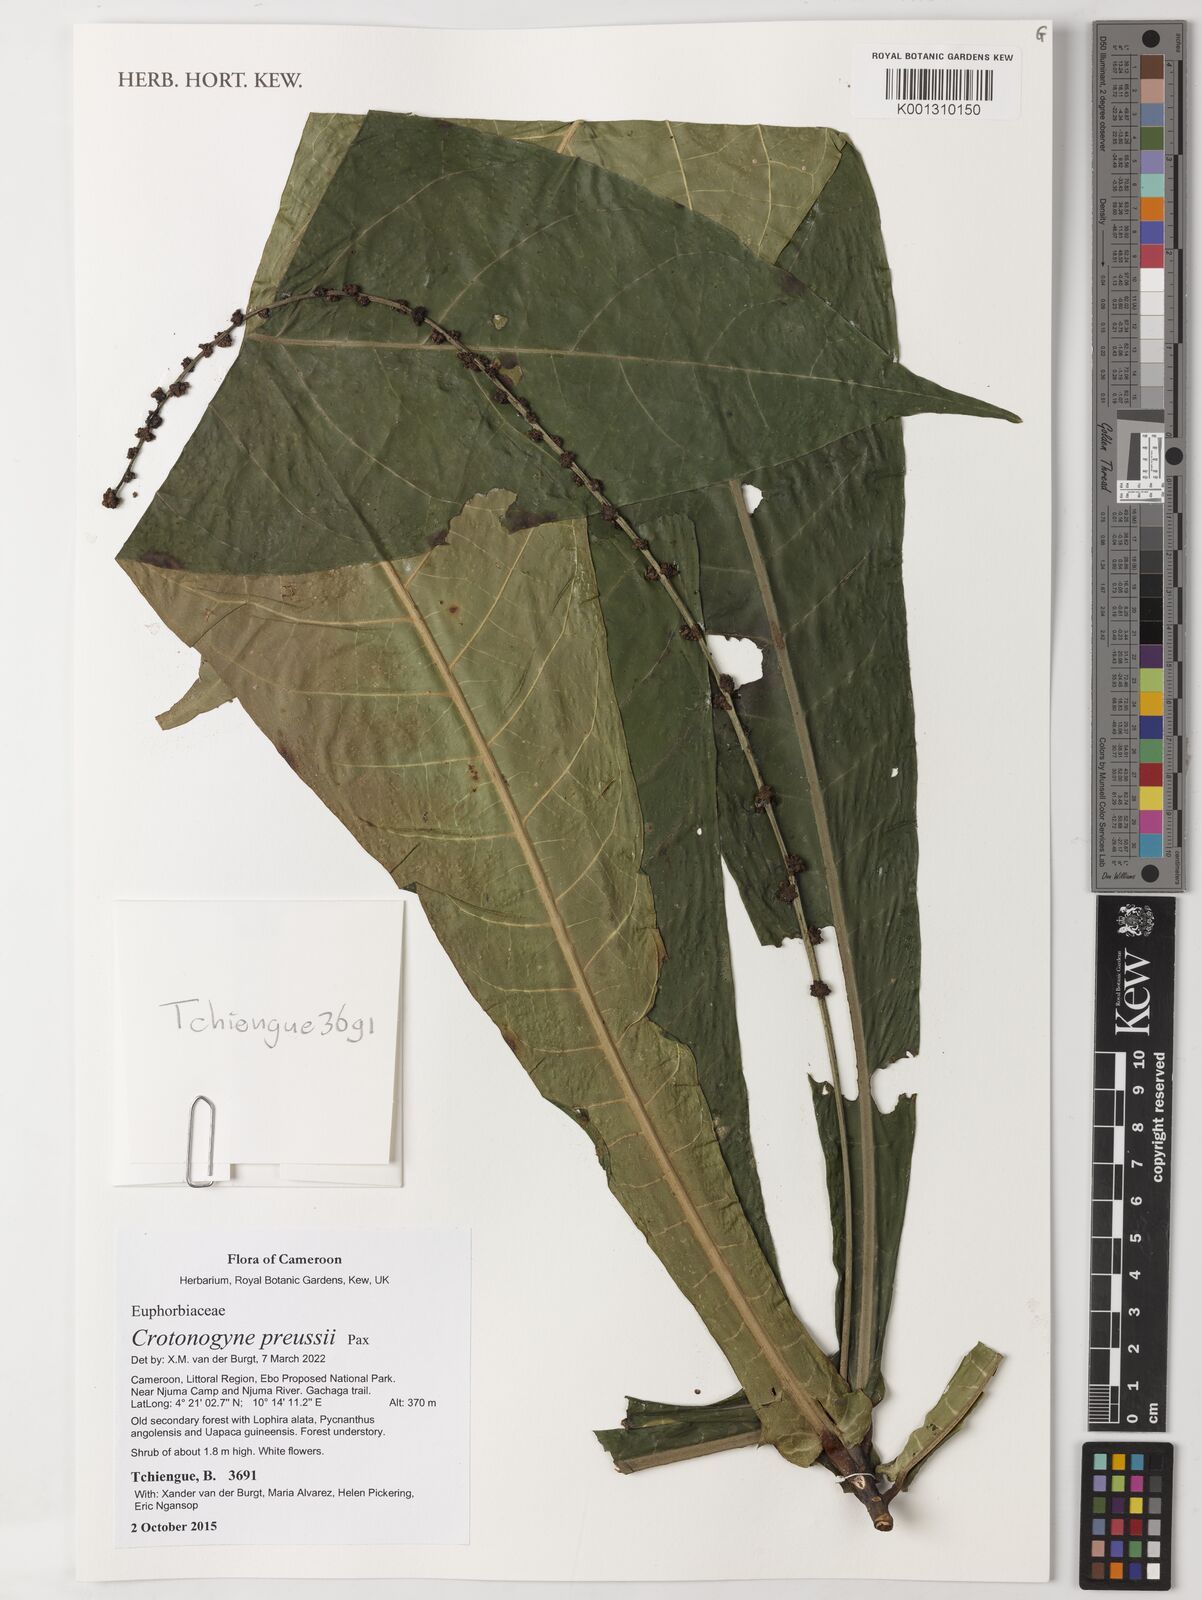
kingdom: Plantae
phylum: Tracheophyta
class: Magnoliopsida
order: Malpighiales
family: Euphorbiaceae
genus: Crotonogyne
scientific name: Crotonogyne preussii
